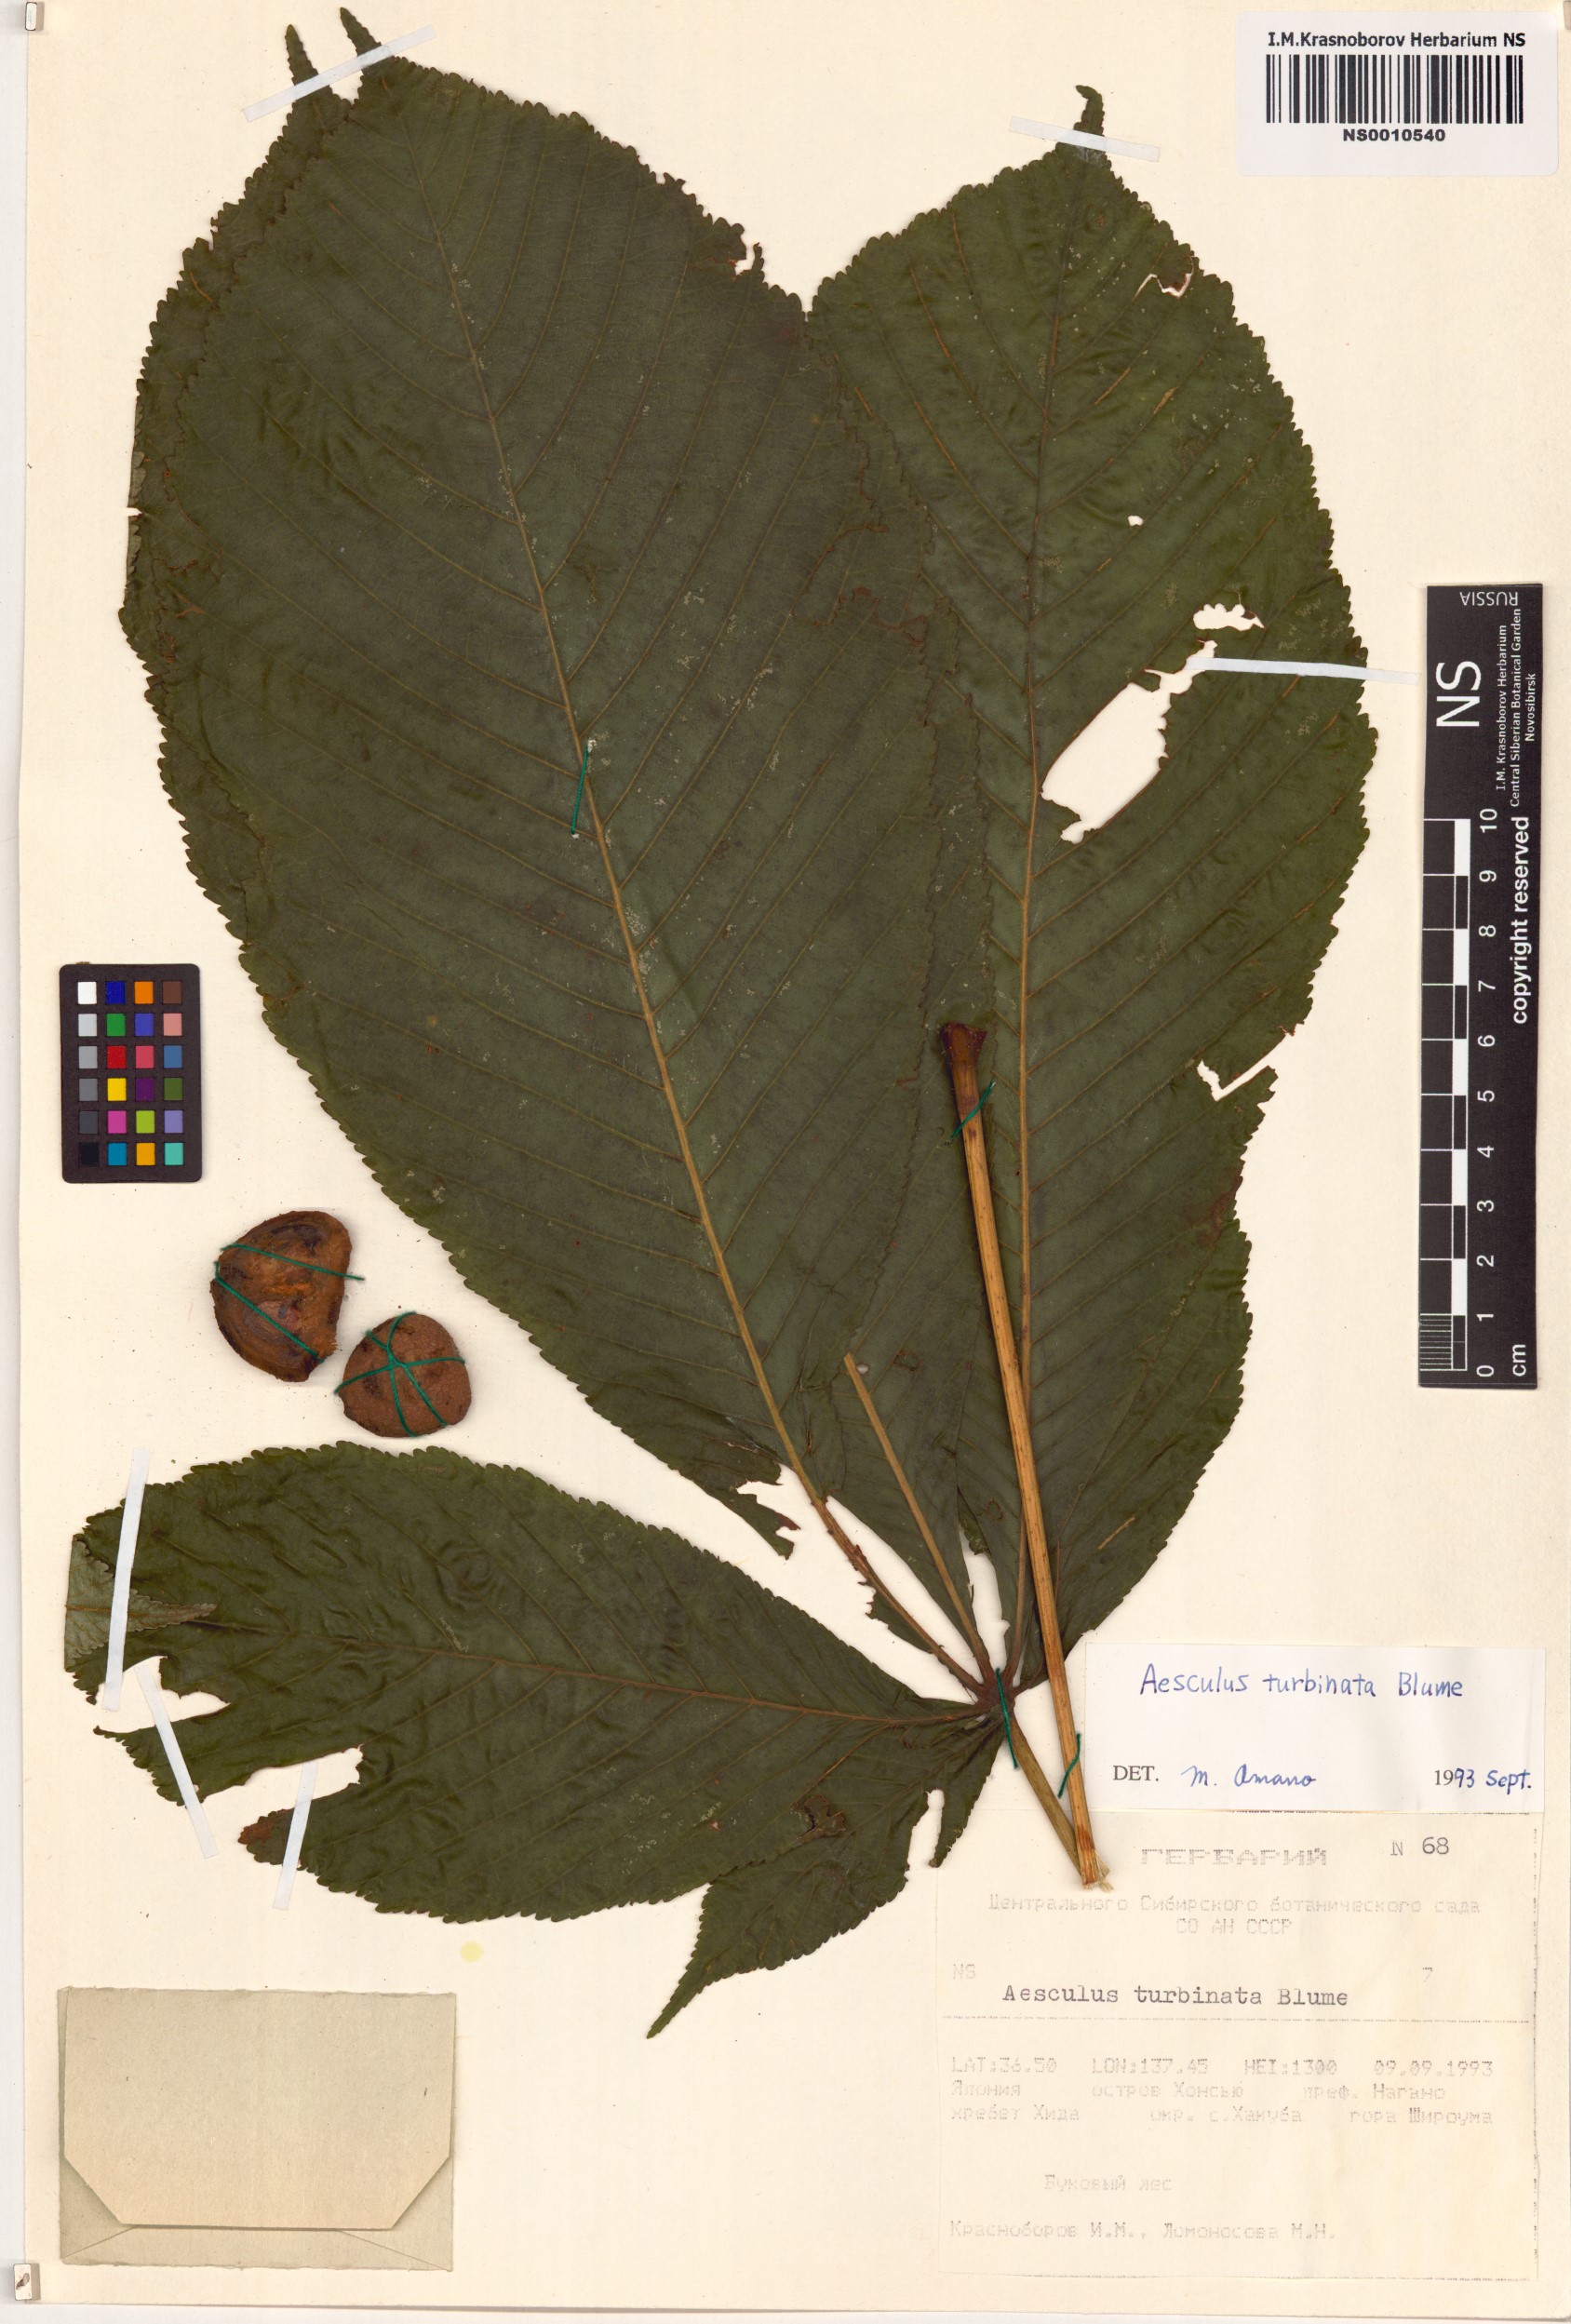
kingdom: Plantae
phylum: Tracheophyta
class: Magnoliopsida
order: Sapindales
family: Sapindaceae
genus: Aesculus
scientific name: Aesculus turbinata
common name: Japanese horse-chestnut
